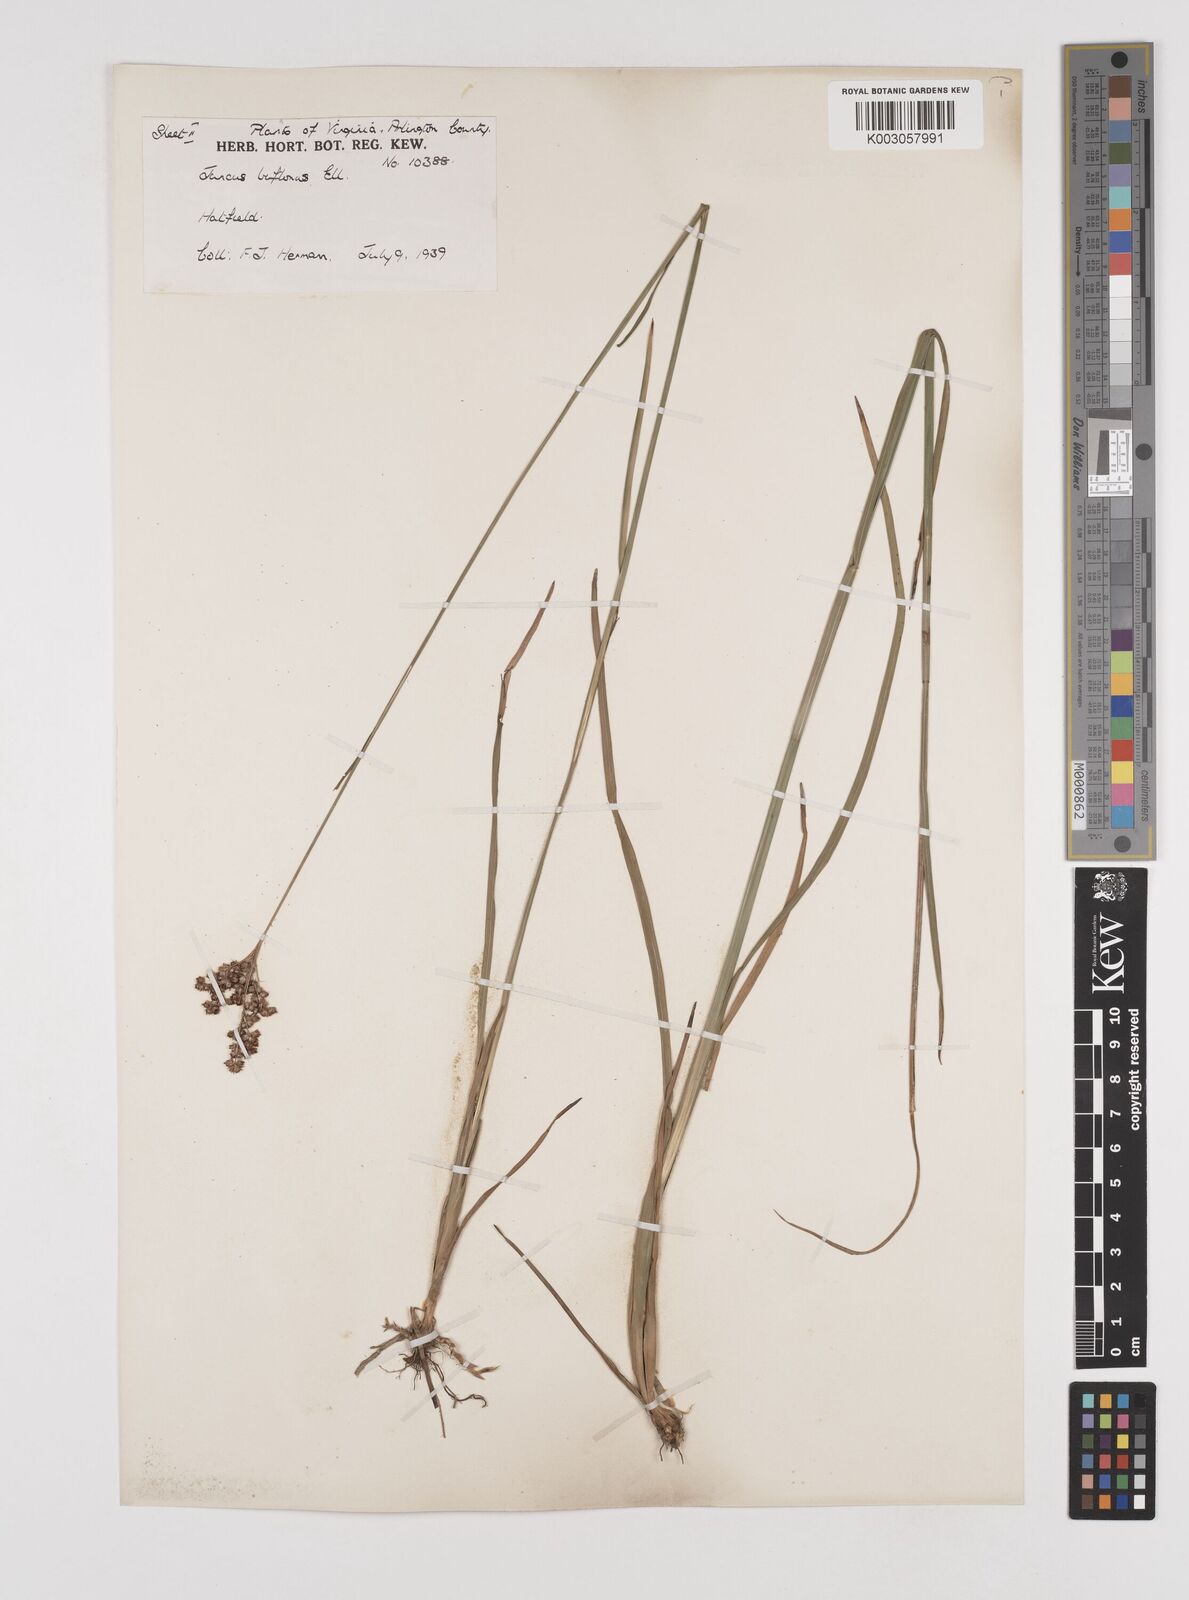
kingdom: Plantae
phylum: Tracheophyta
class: Liliopsida
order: Poales
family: Juncaceae
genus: Juncus
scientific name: Juncus marginatus
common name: Grass-leaf rush
